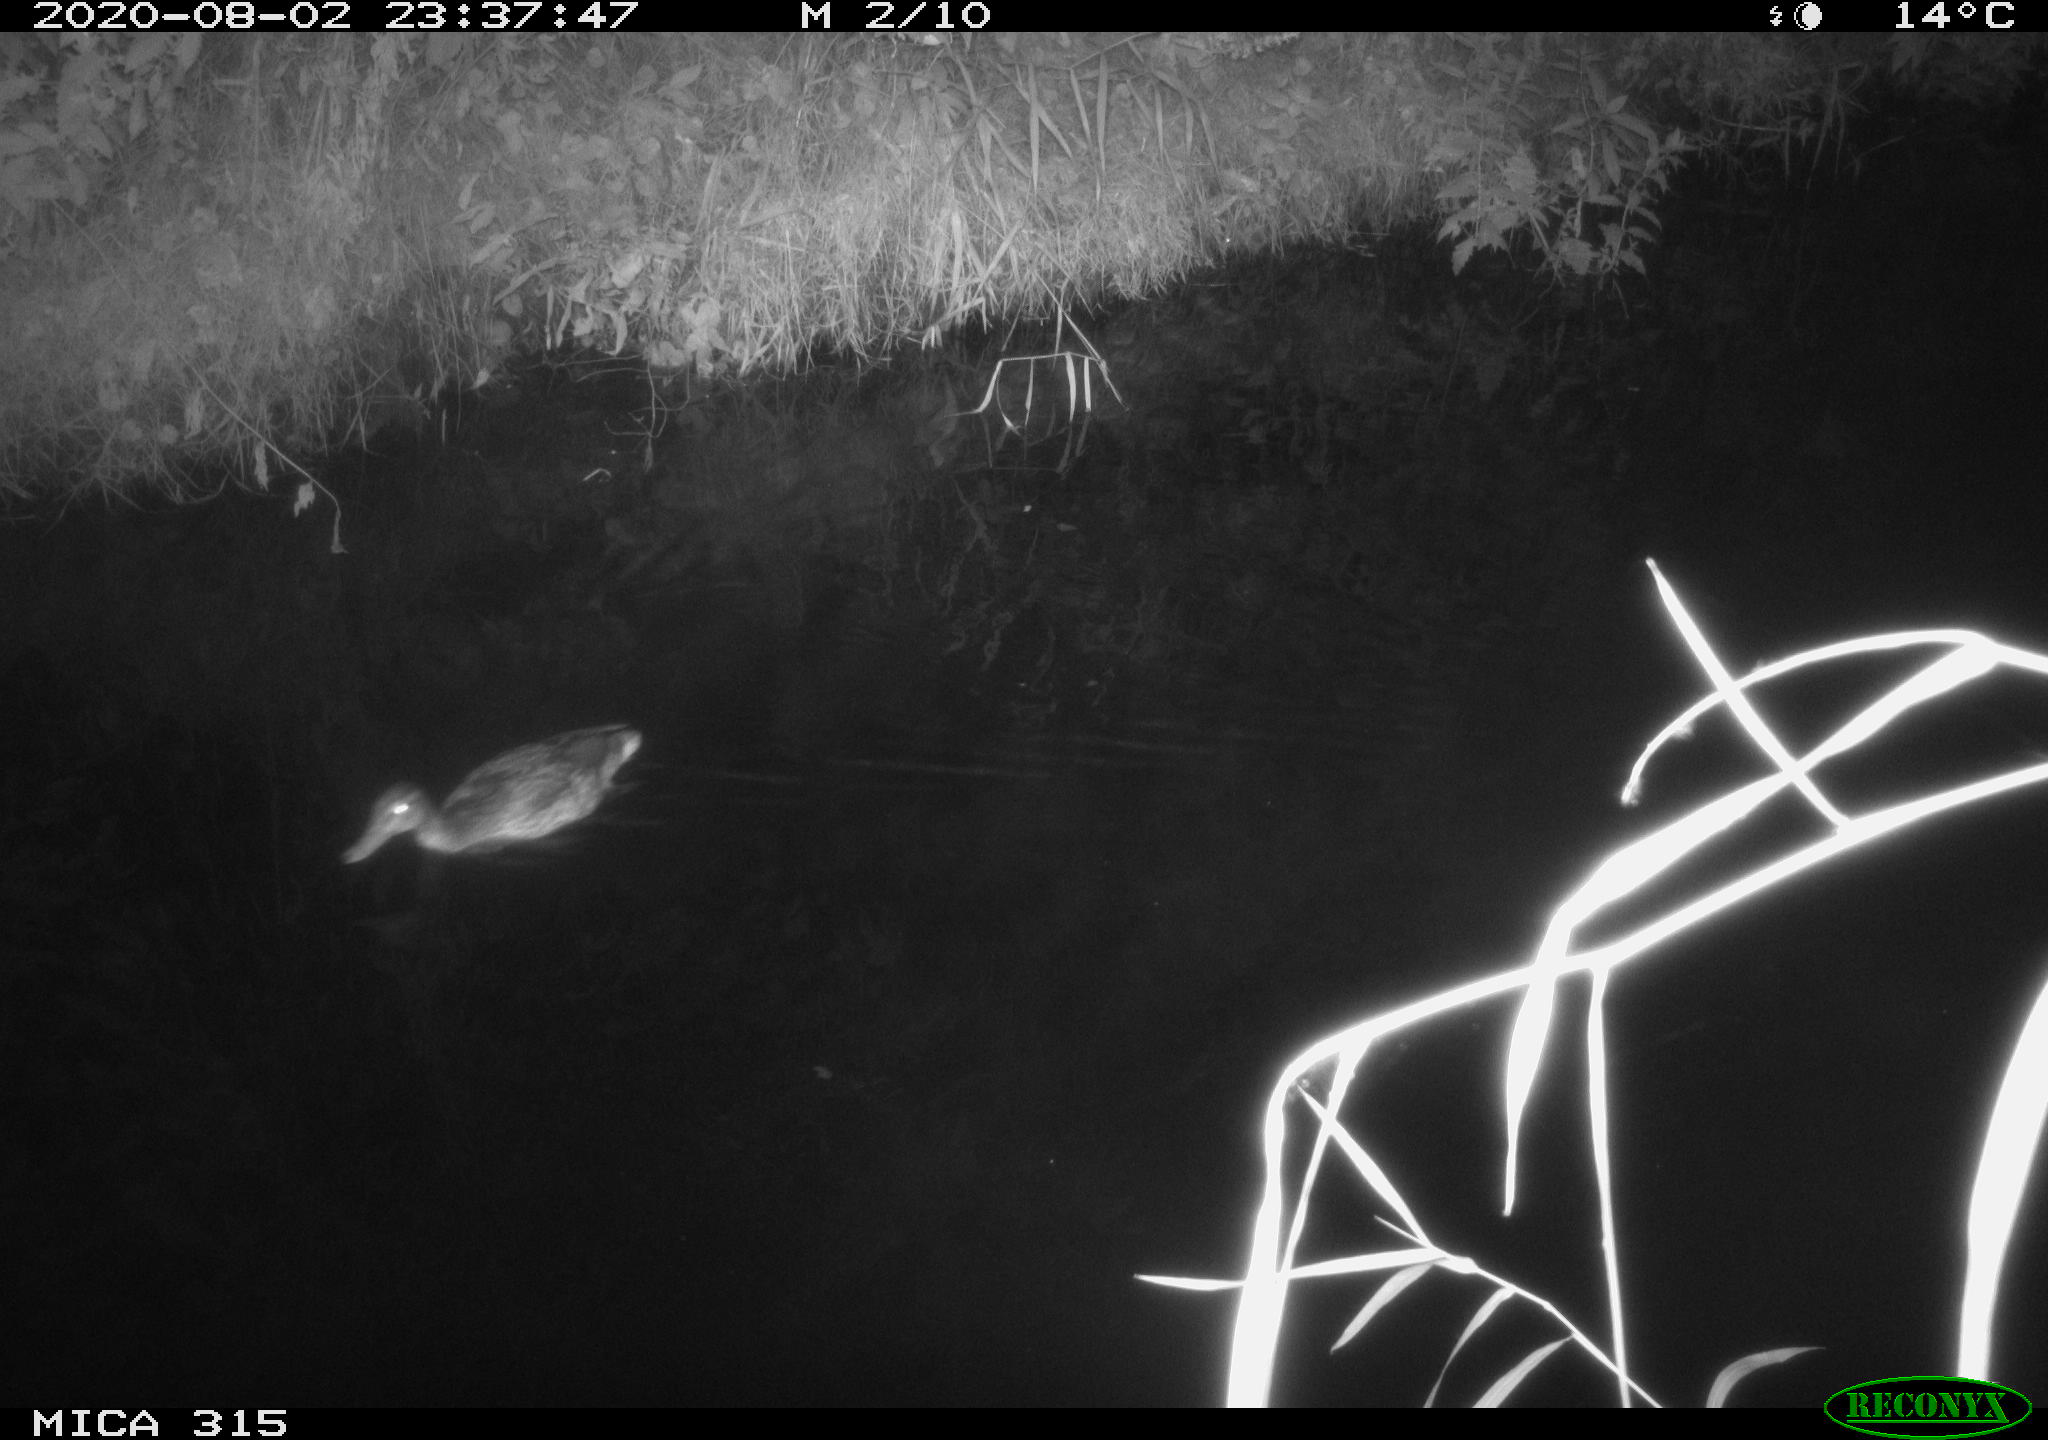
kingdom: Animalia
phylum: Chordata
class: Aves
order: Anseriformes
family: Anatidae
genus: Anas
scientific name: Anas platyrhynchos
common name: Mallard
